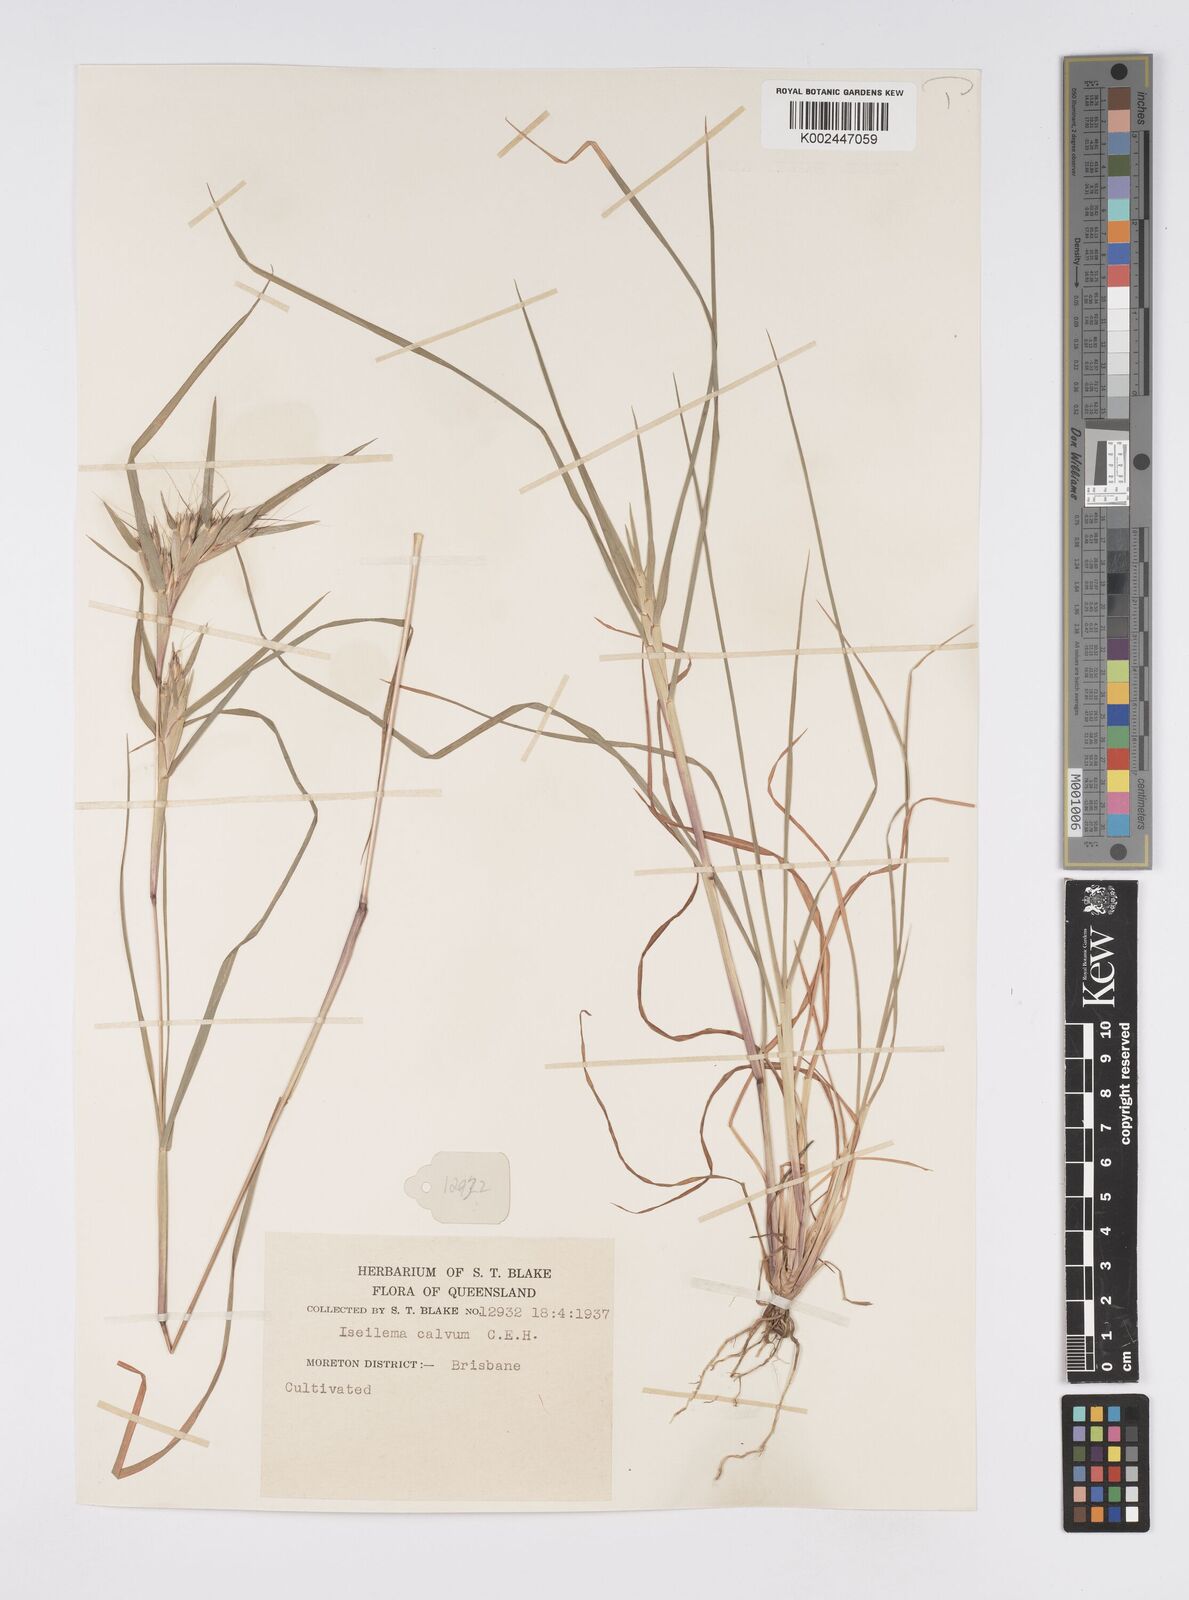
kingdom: Plantae
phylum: Tracheophyta
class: Liliopsida
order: Poales
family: Poaceae
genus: Iseilema
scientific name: Iseilema calvum
